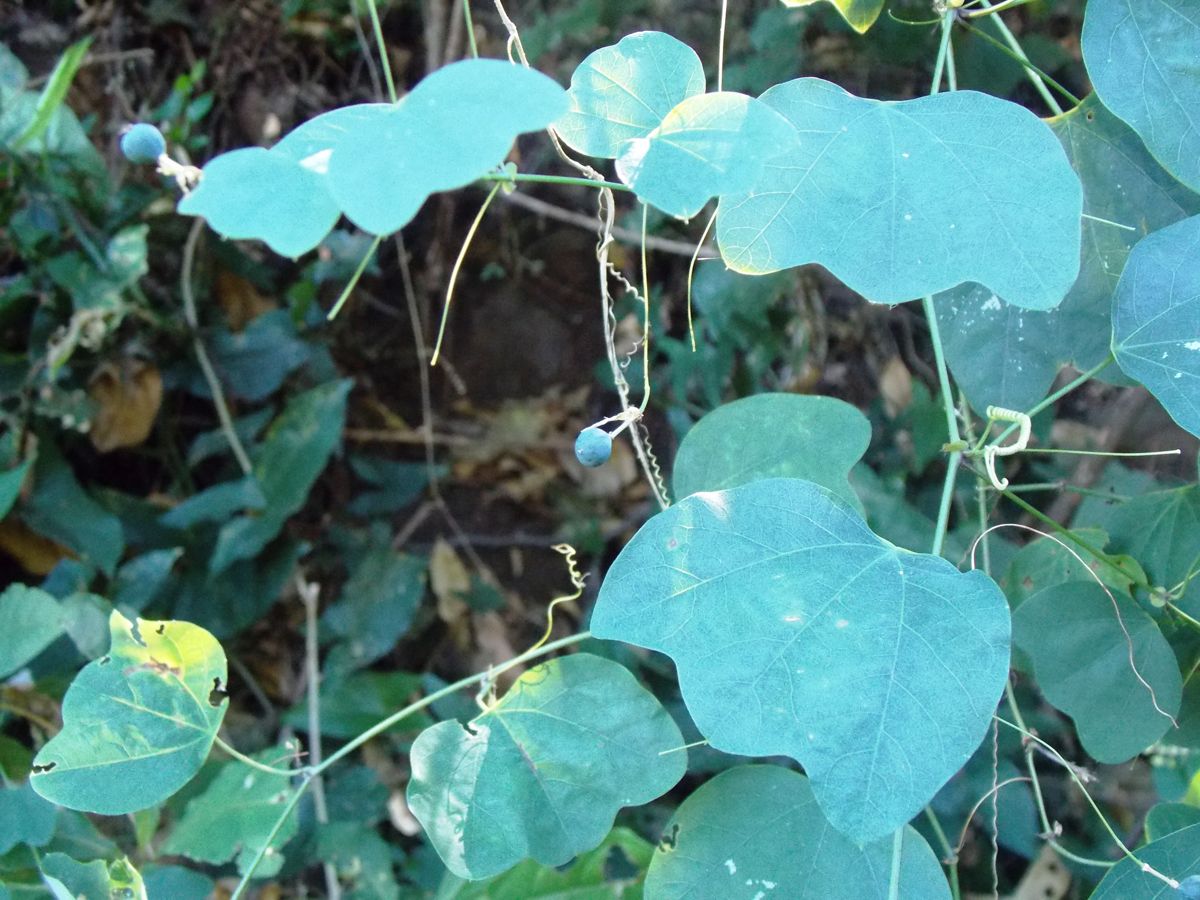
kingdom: Plantae
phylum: Tracheophyta
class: Magnoliopsida
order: Malpighiales
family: Passifloraceae
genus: Passiflora
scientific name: Passiflora filipes
